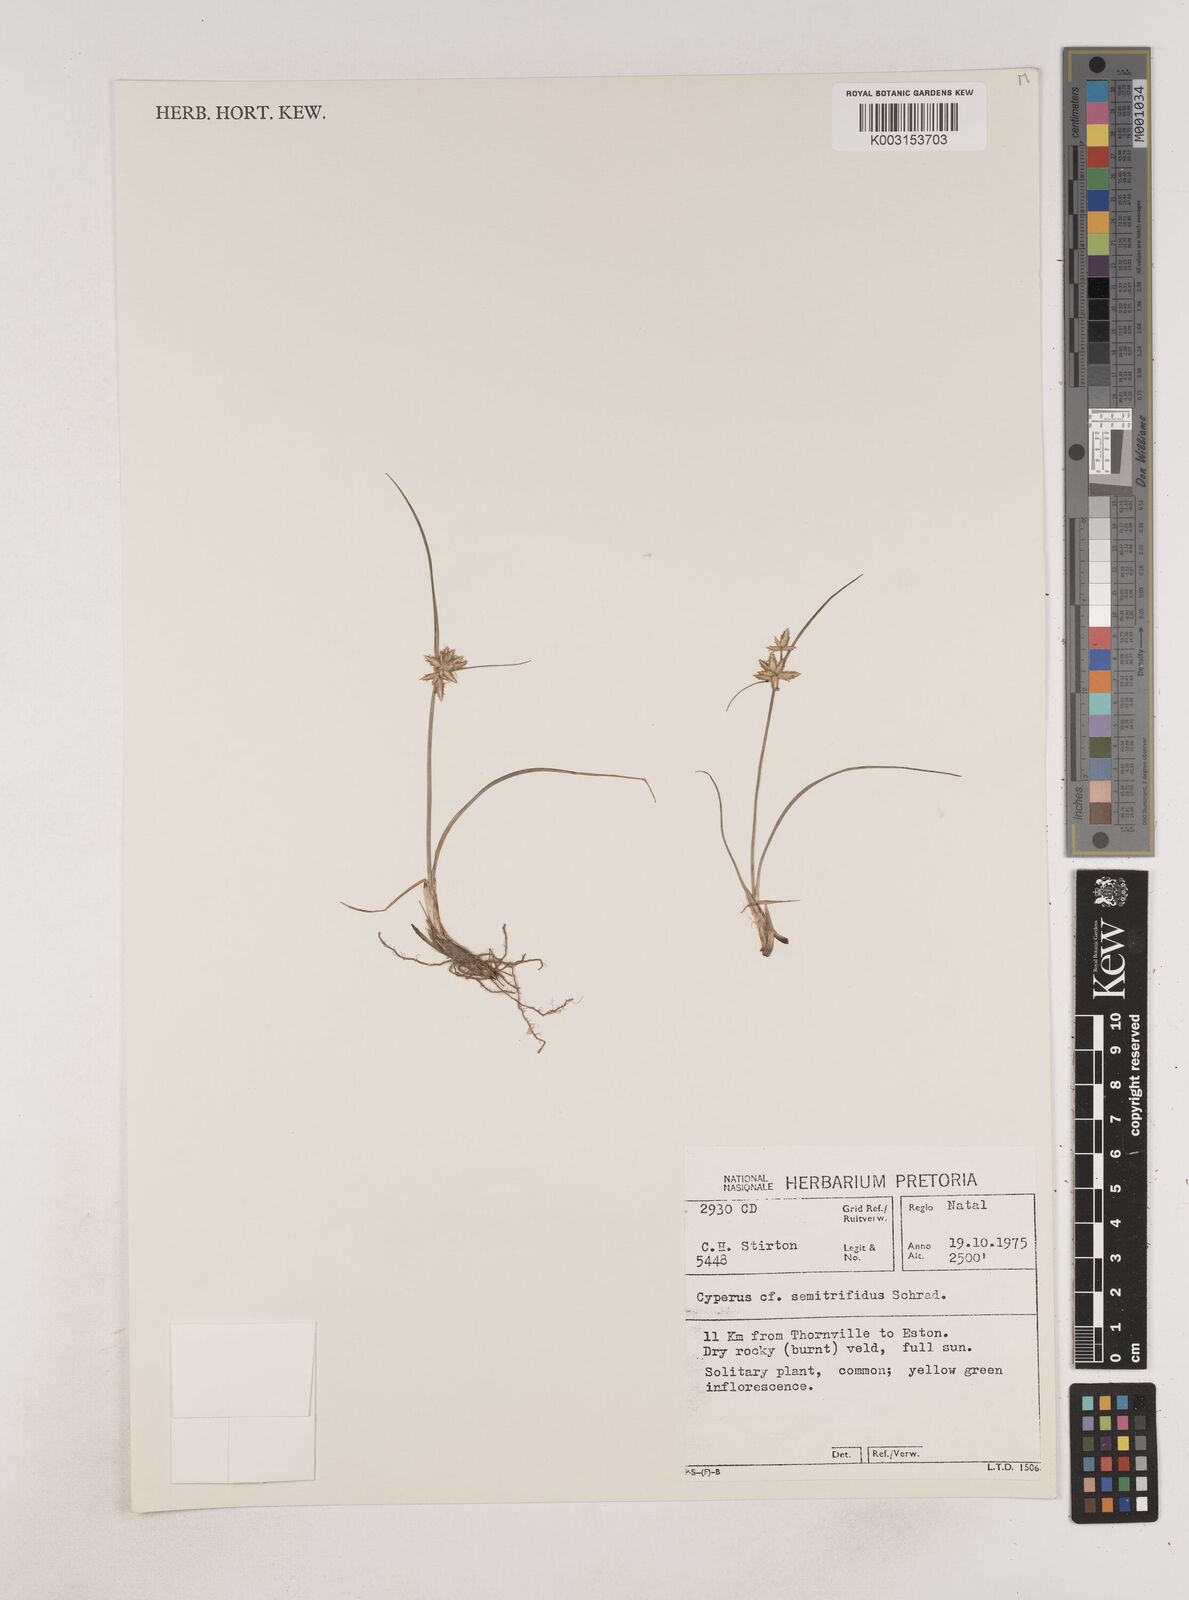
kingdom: Plantae
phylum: Tracheophyta
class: Liliopsida
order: Poales
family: Cyperaceae
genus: Cyperus
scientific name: Cyperus semitrifidus
